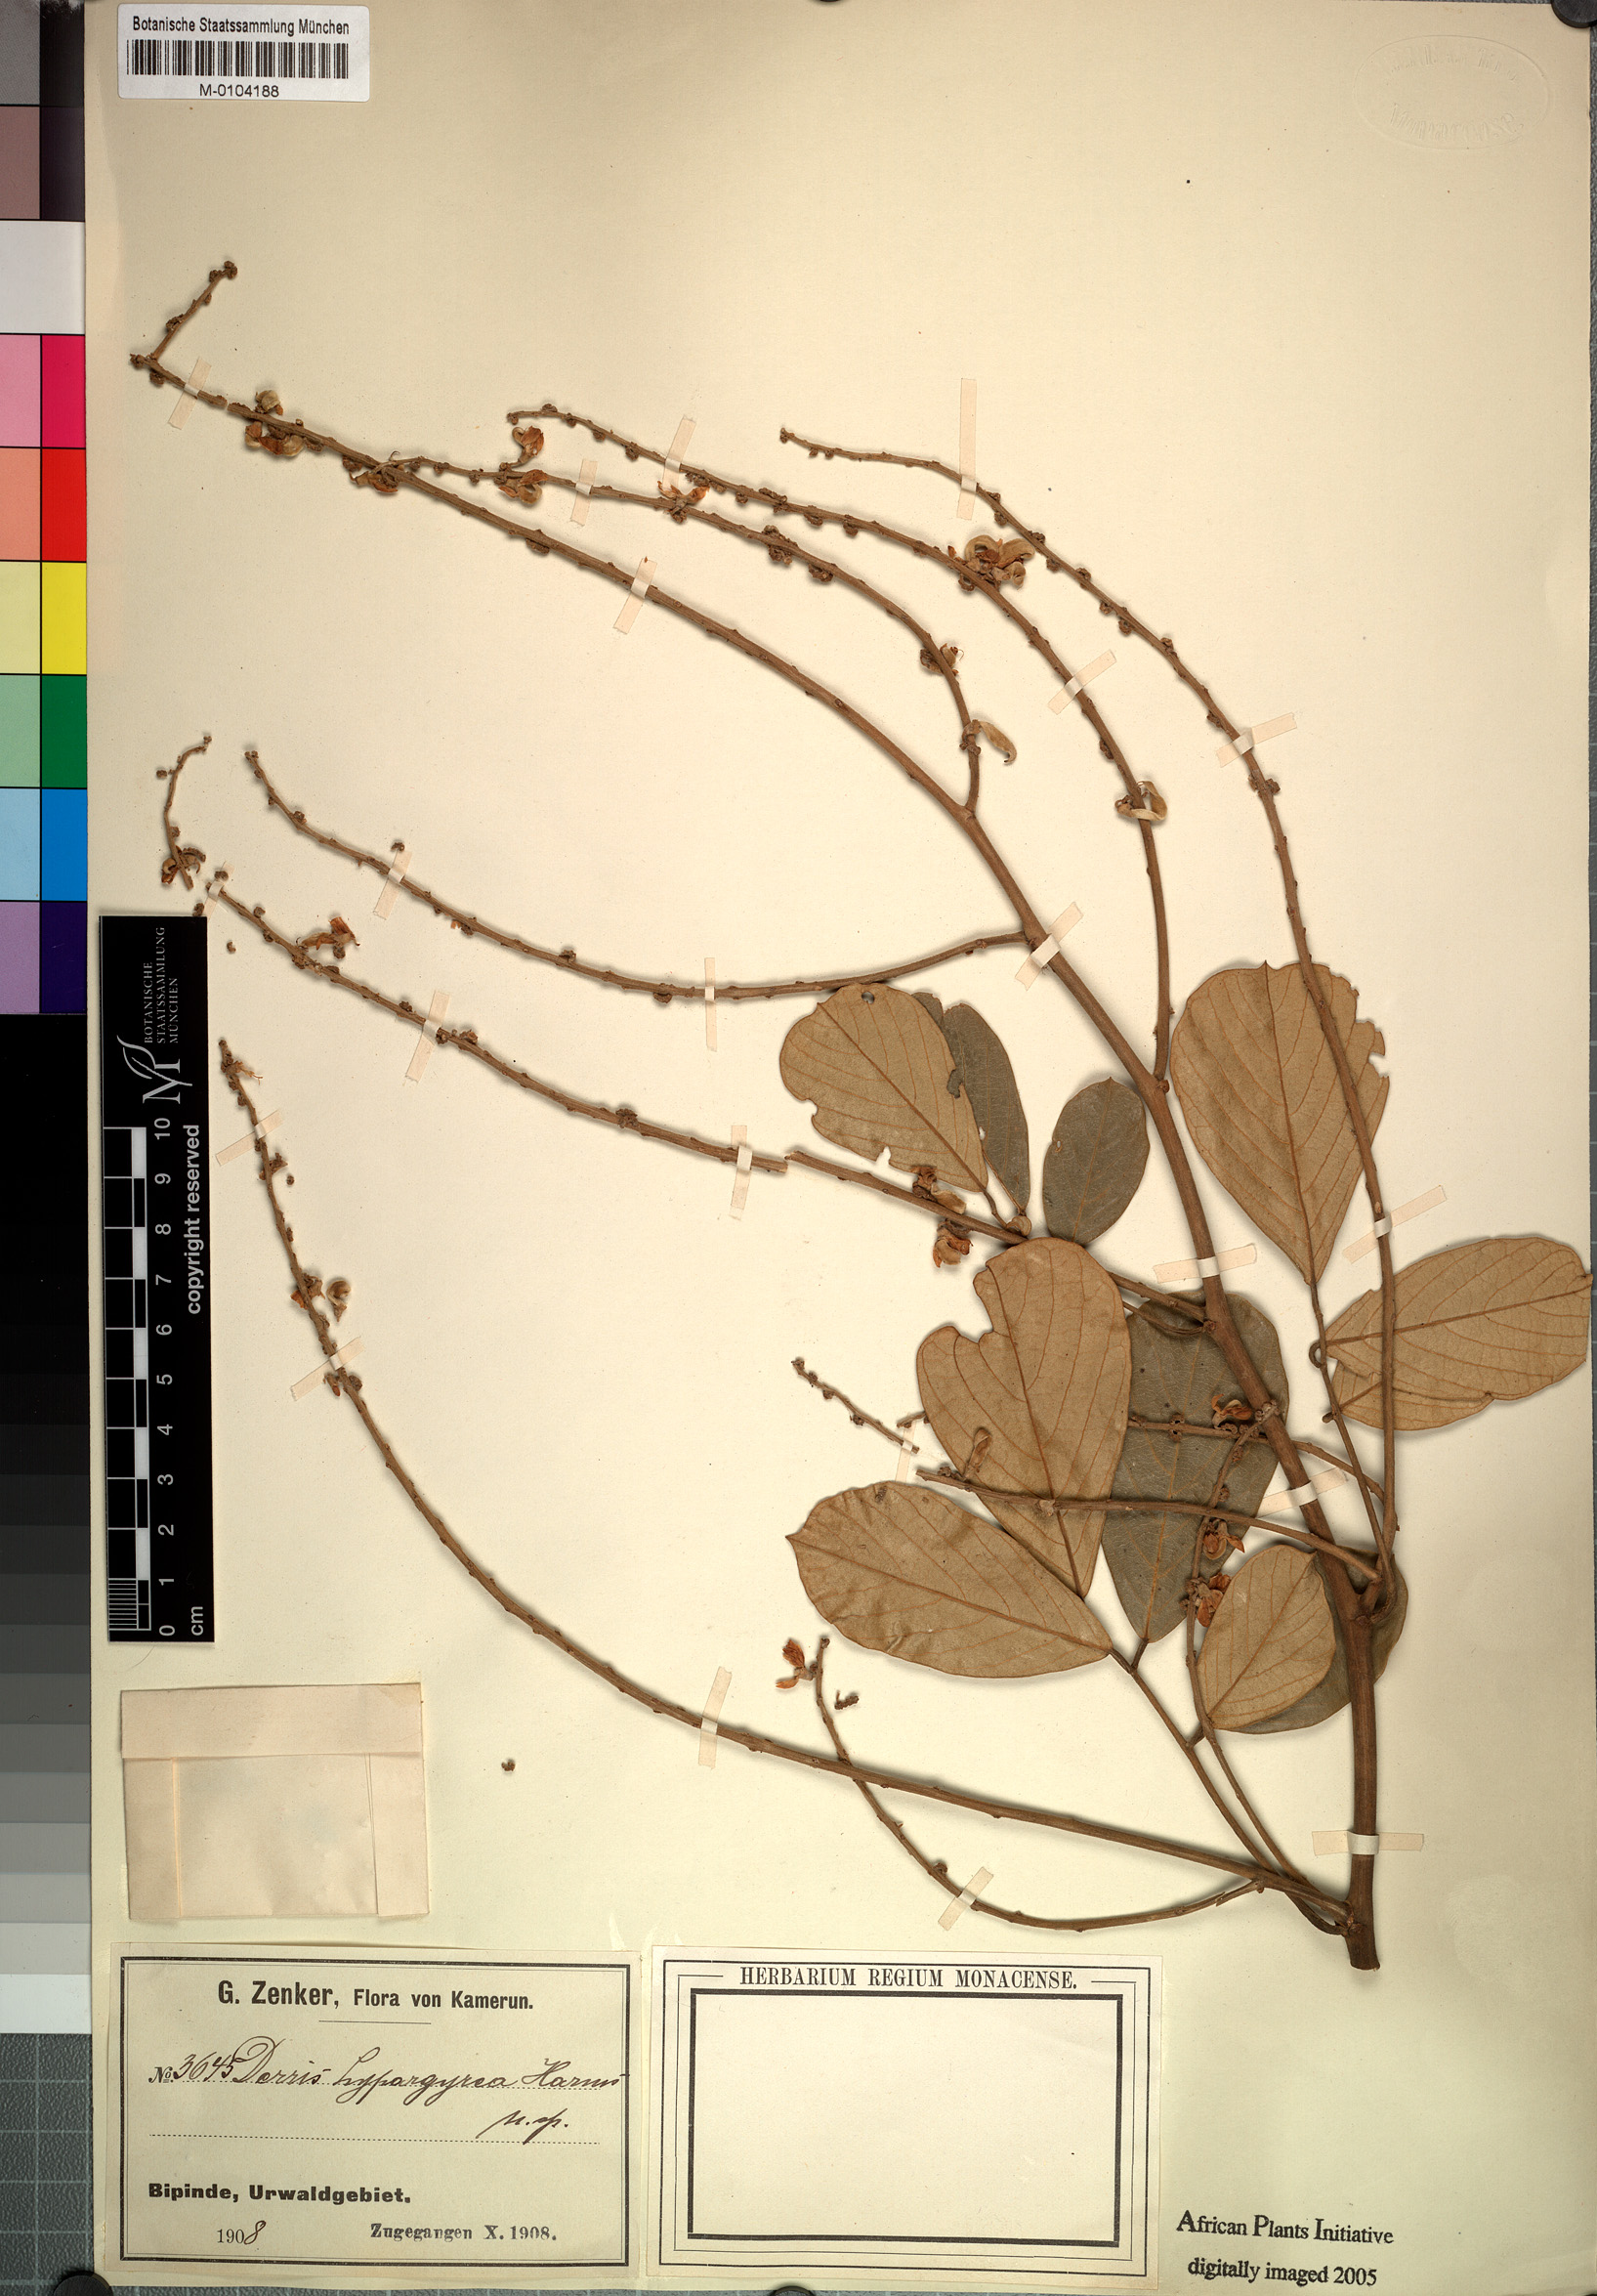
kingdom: Plantae
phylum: Tracheophyta
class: Magnoliopsida
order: Fabales
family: Fabaceae
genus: Leptoderris
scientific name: Leptoderris hypargyrea
